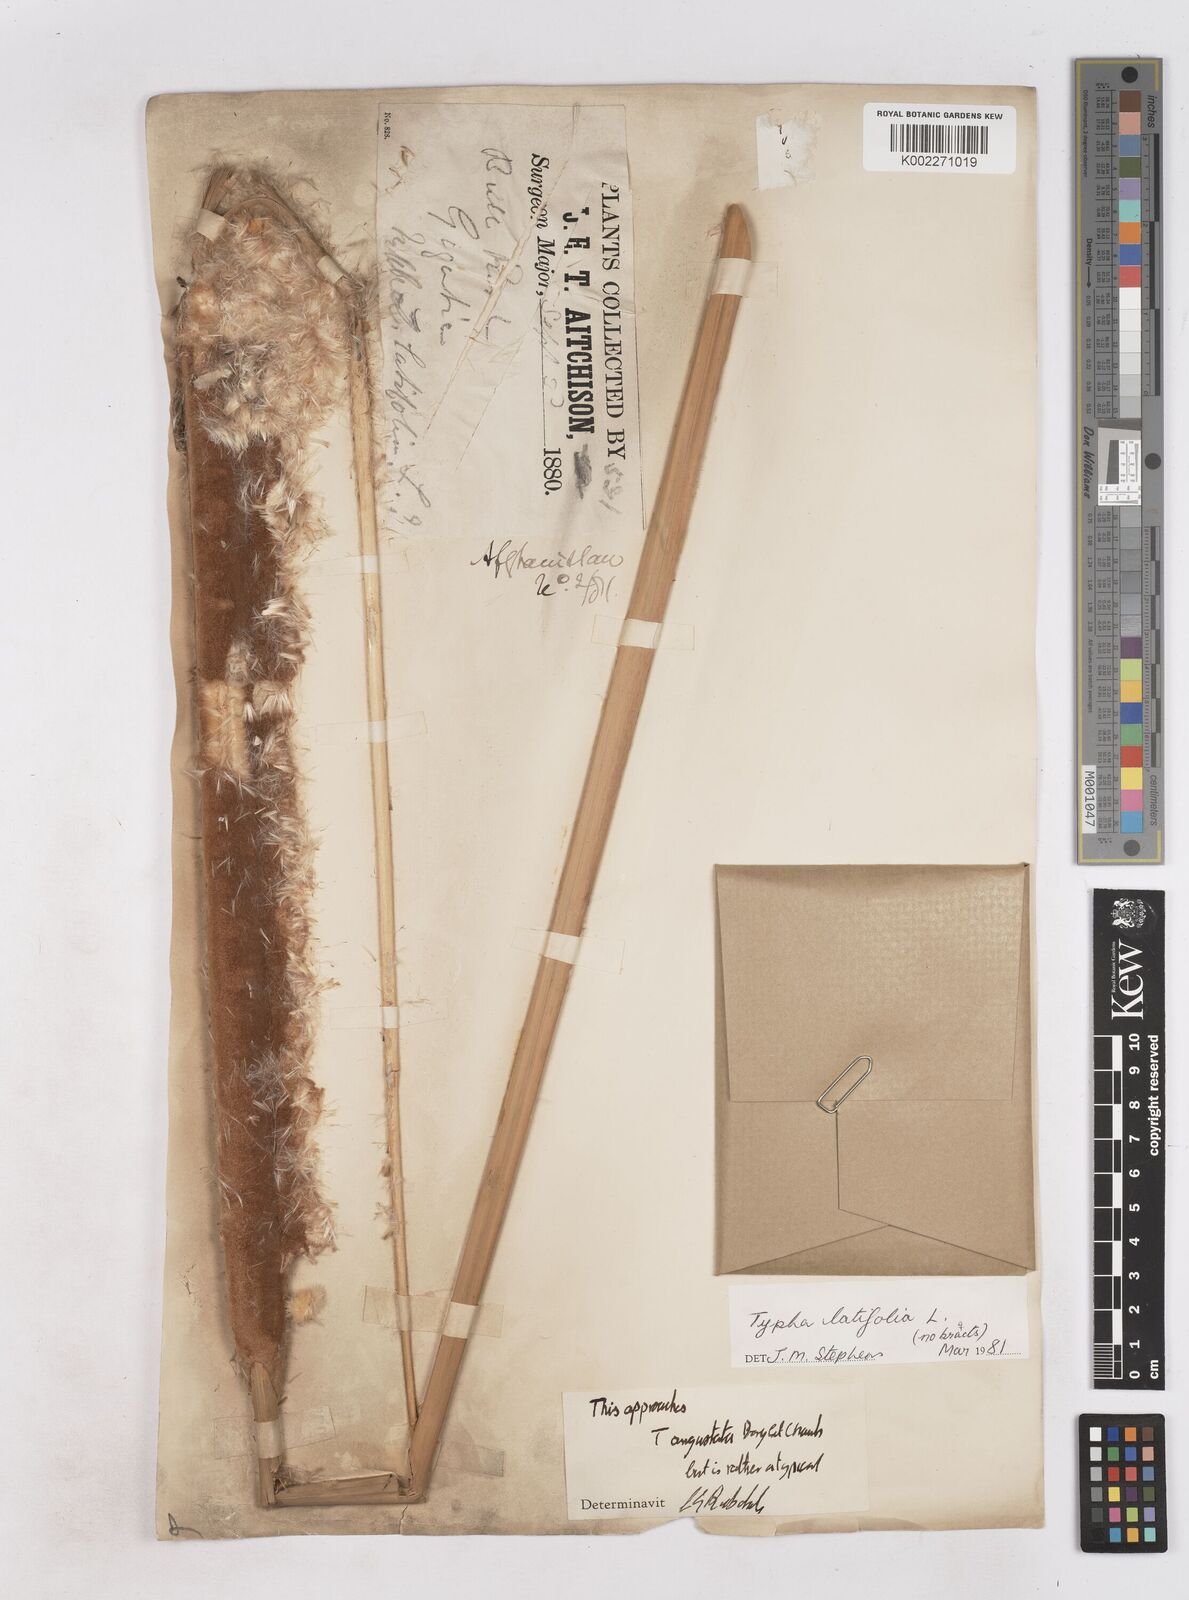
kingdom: Plantae
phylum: Tracheophyta
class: Liliopsida
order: Poales
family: Typhaceae
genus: Typha
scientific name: Typha domingensis
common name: Southern cattail
